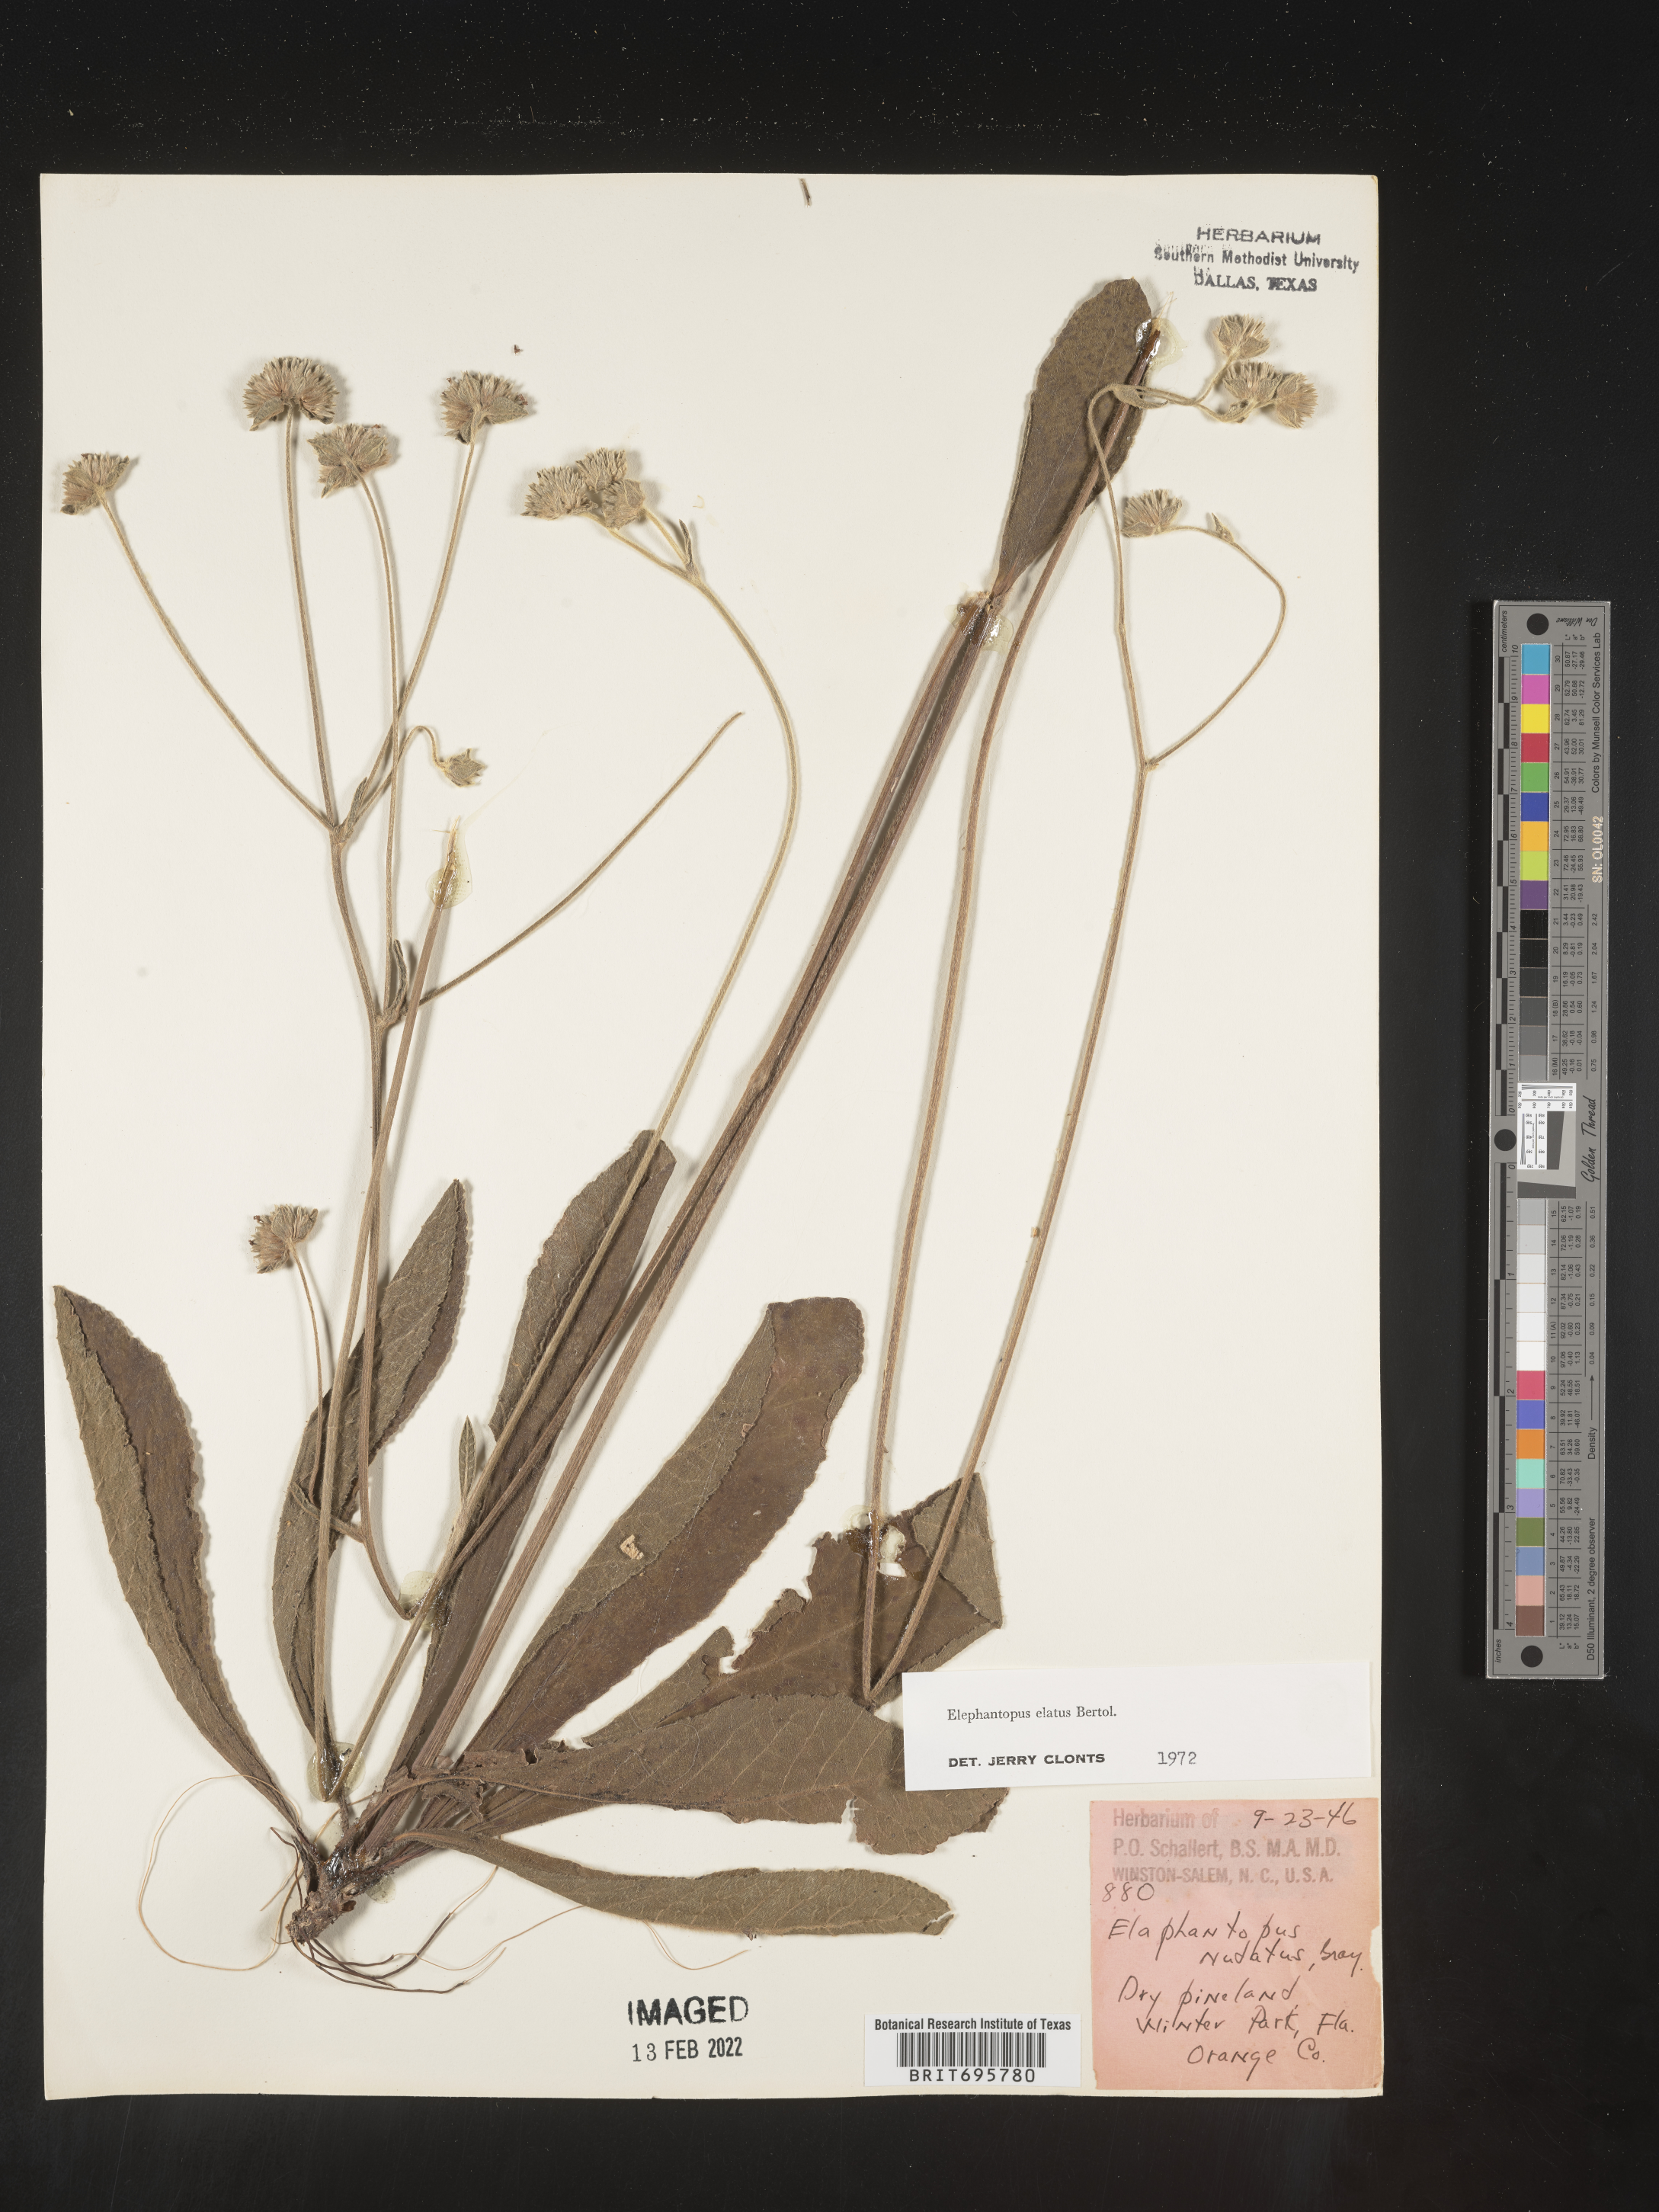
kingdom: Plantae
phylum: Tracheophyta
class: Magnoliopsida
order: Asterales
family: Asteraceae
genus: Elephantopus
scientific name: Elephantopus elatus
